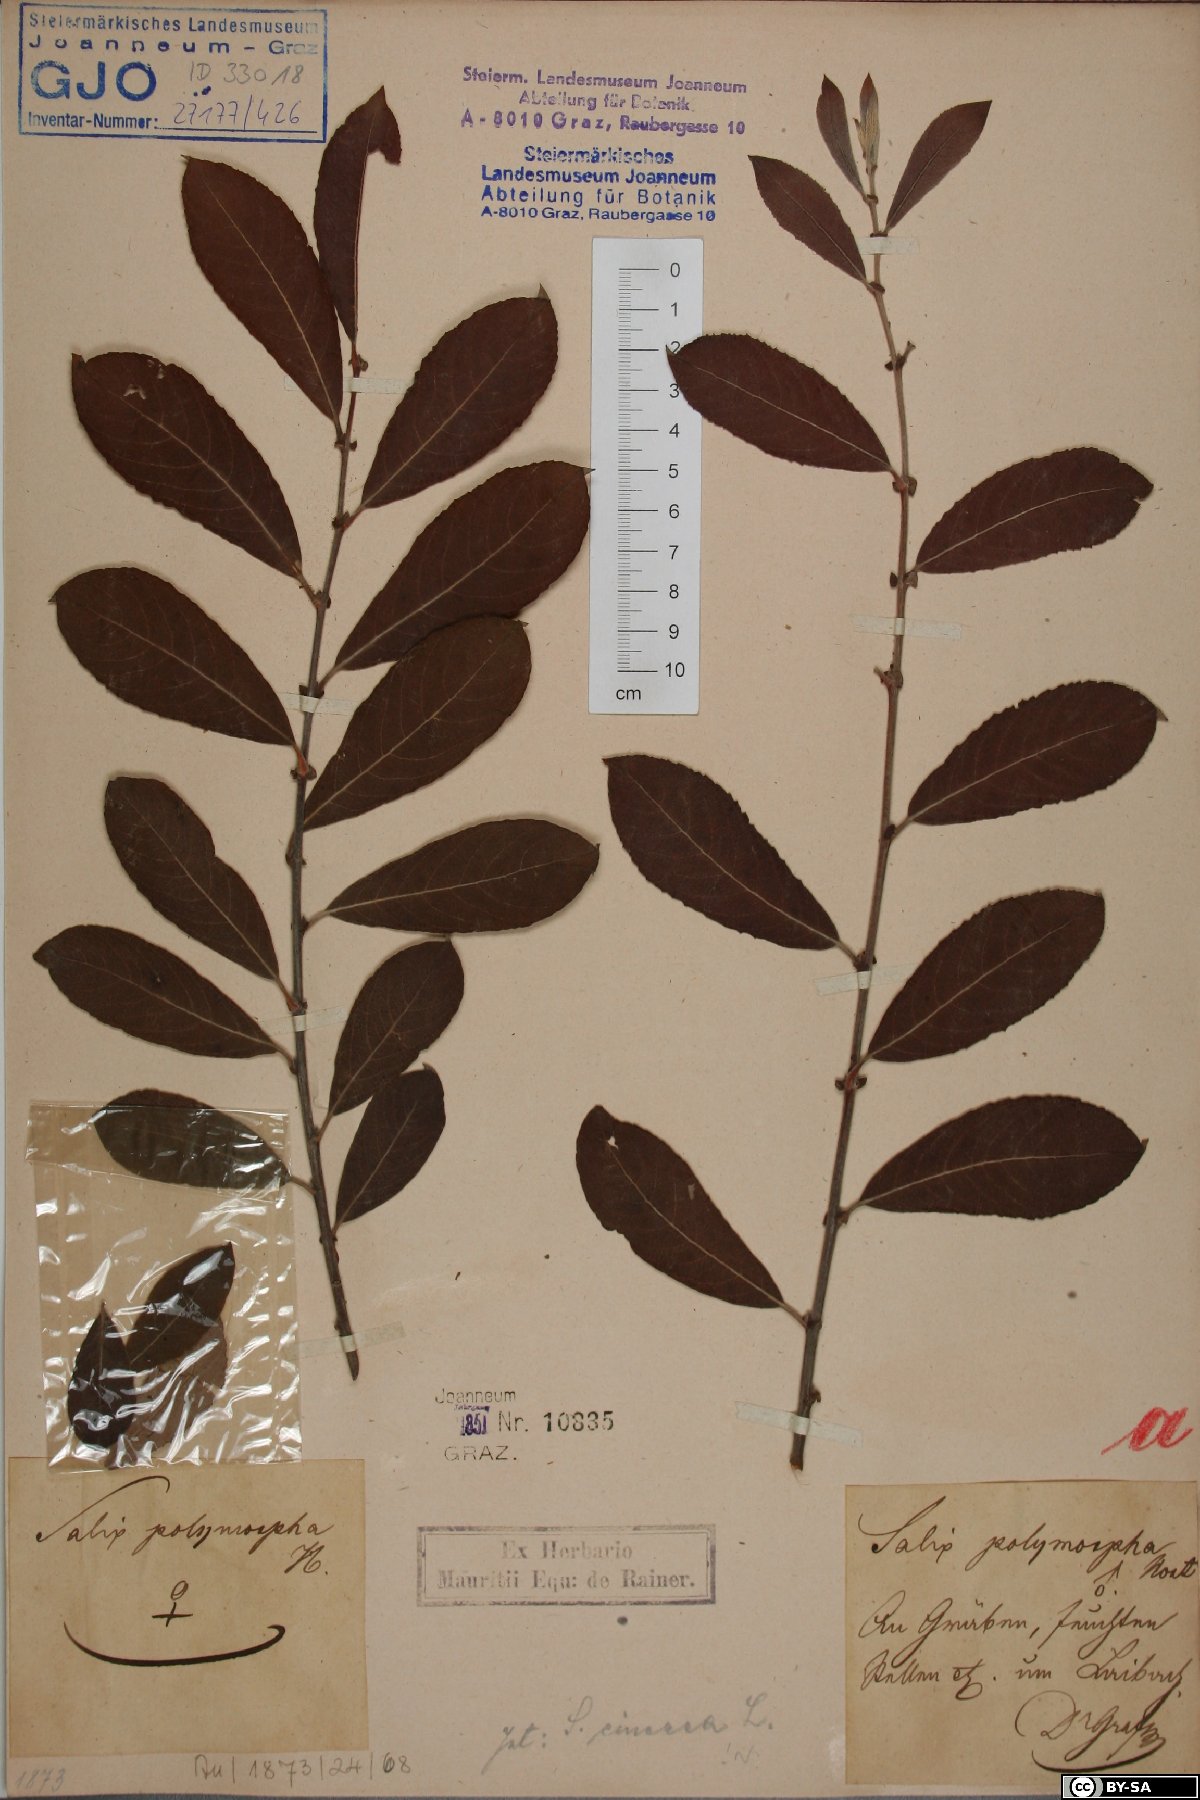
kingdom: Plantae
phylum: Tracheophyta
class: Magnoliopsida
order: Malpighiales
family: Salicaceae
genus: Salix
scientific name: Salix cinerea
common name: Common sallow
